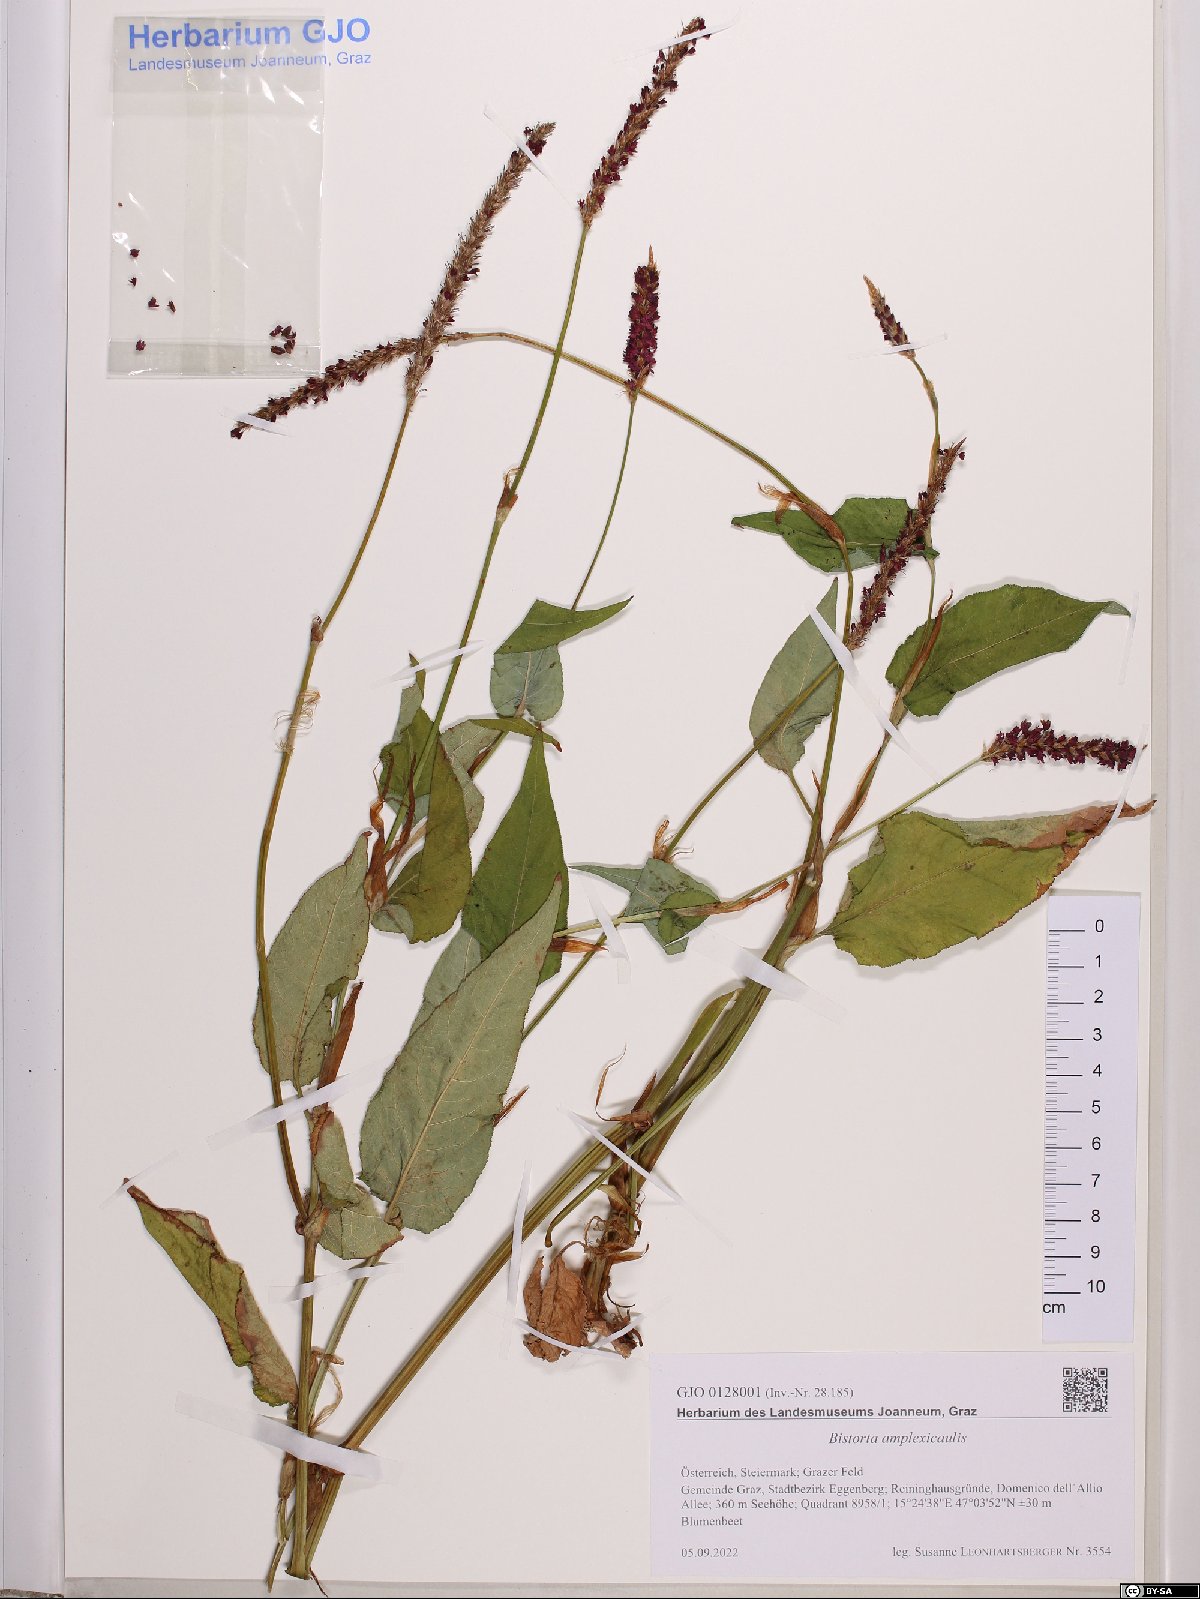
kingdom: Plantae
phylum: Tracheophyta
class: Magnoliopsida
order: Caryophyllales
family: Polygonaceae
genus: Bistorta
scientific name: Bistorta amplexicaulis
